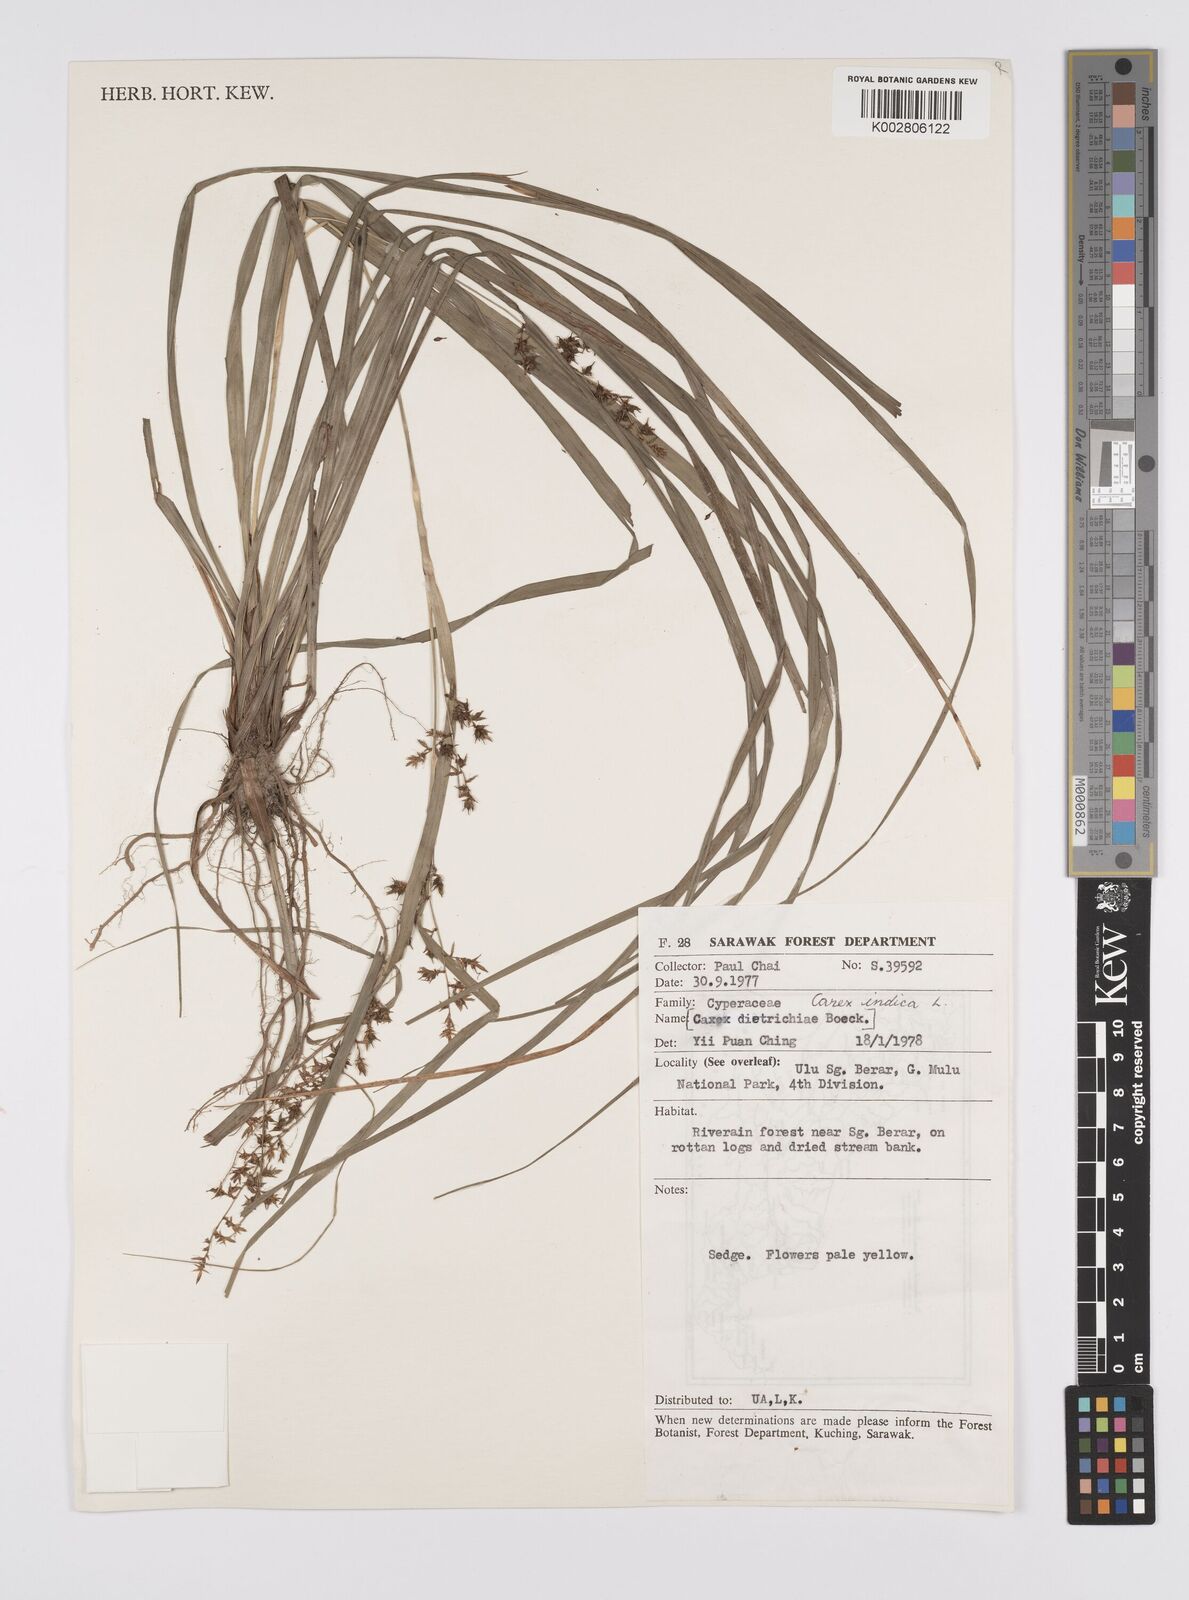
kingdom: Plantae
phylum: Tracheophyta
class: Liliopsida
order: Poales
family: Cyperaceae
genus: Carex
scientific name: Carex indica
